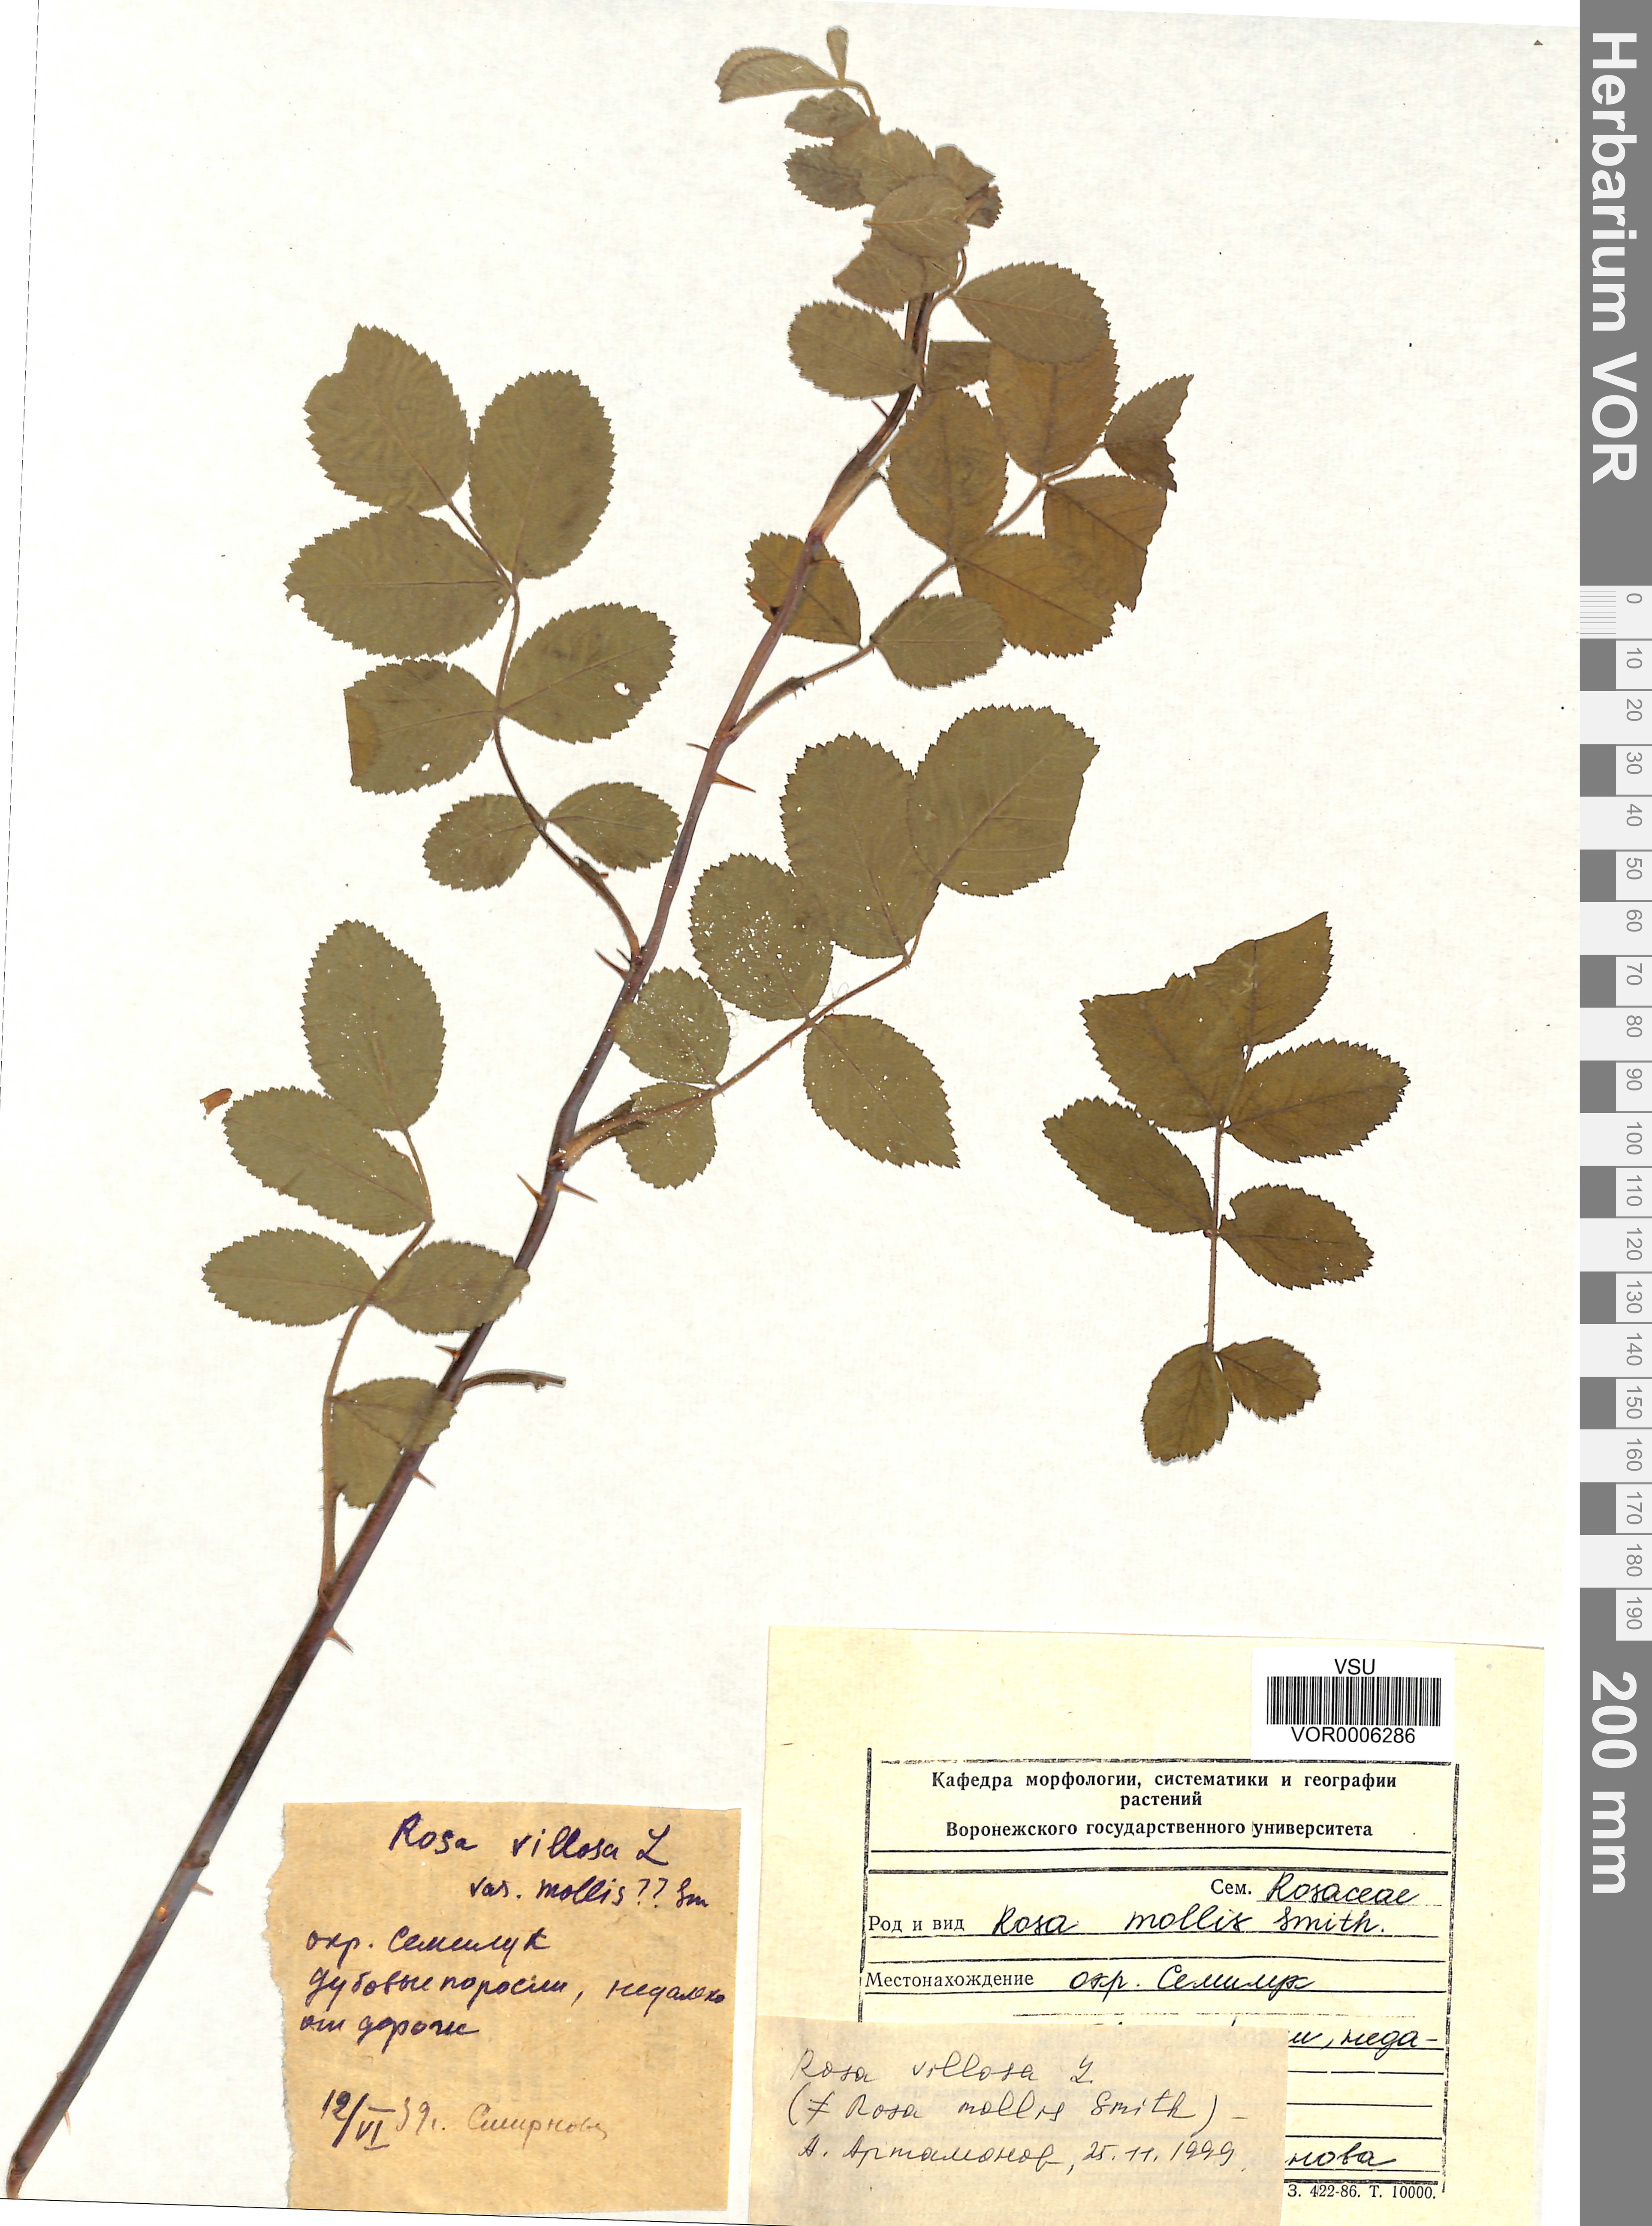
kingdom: Plantae
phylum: Tracheophyta
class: Magnoliopsida
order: Rosales
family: Rosaceae
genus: Rosa
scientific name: Rosa villosa
